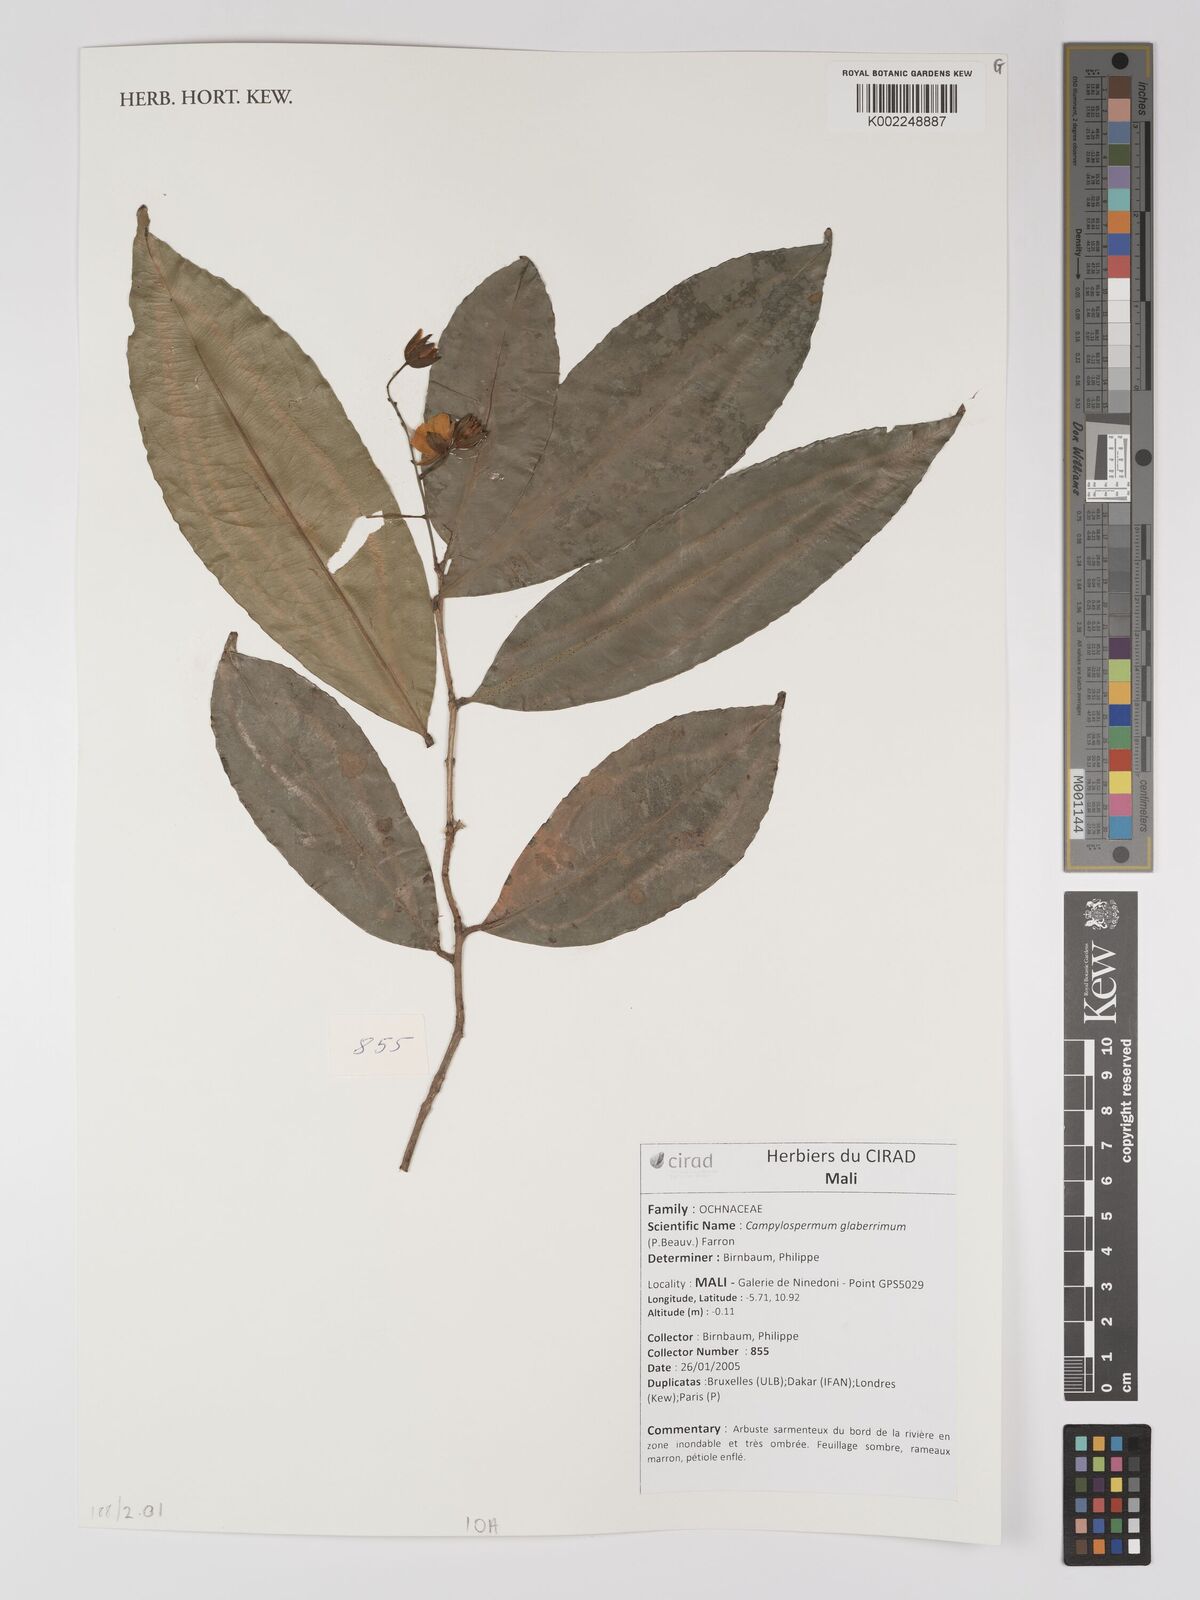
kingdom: Plantae
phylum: Tracheophyta
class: Magnoliopsida
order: Malpighiales
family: Ochnaceae
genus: Campylospermum
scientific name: Campylospermum glaberrimum
